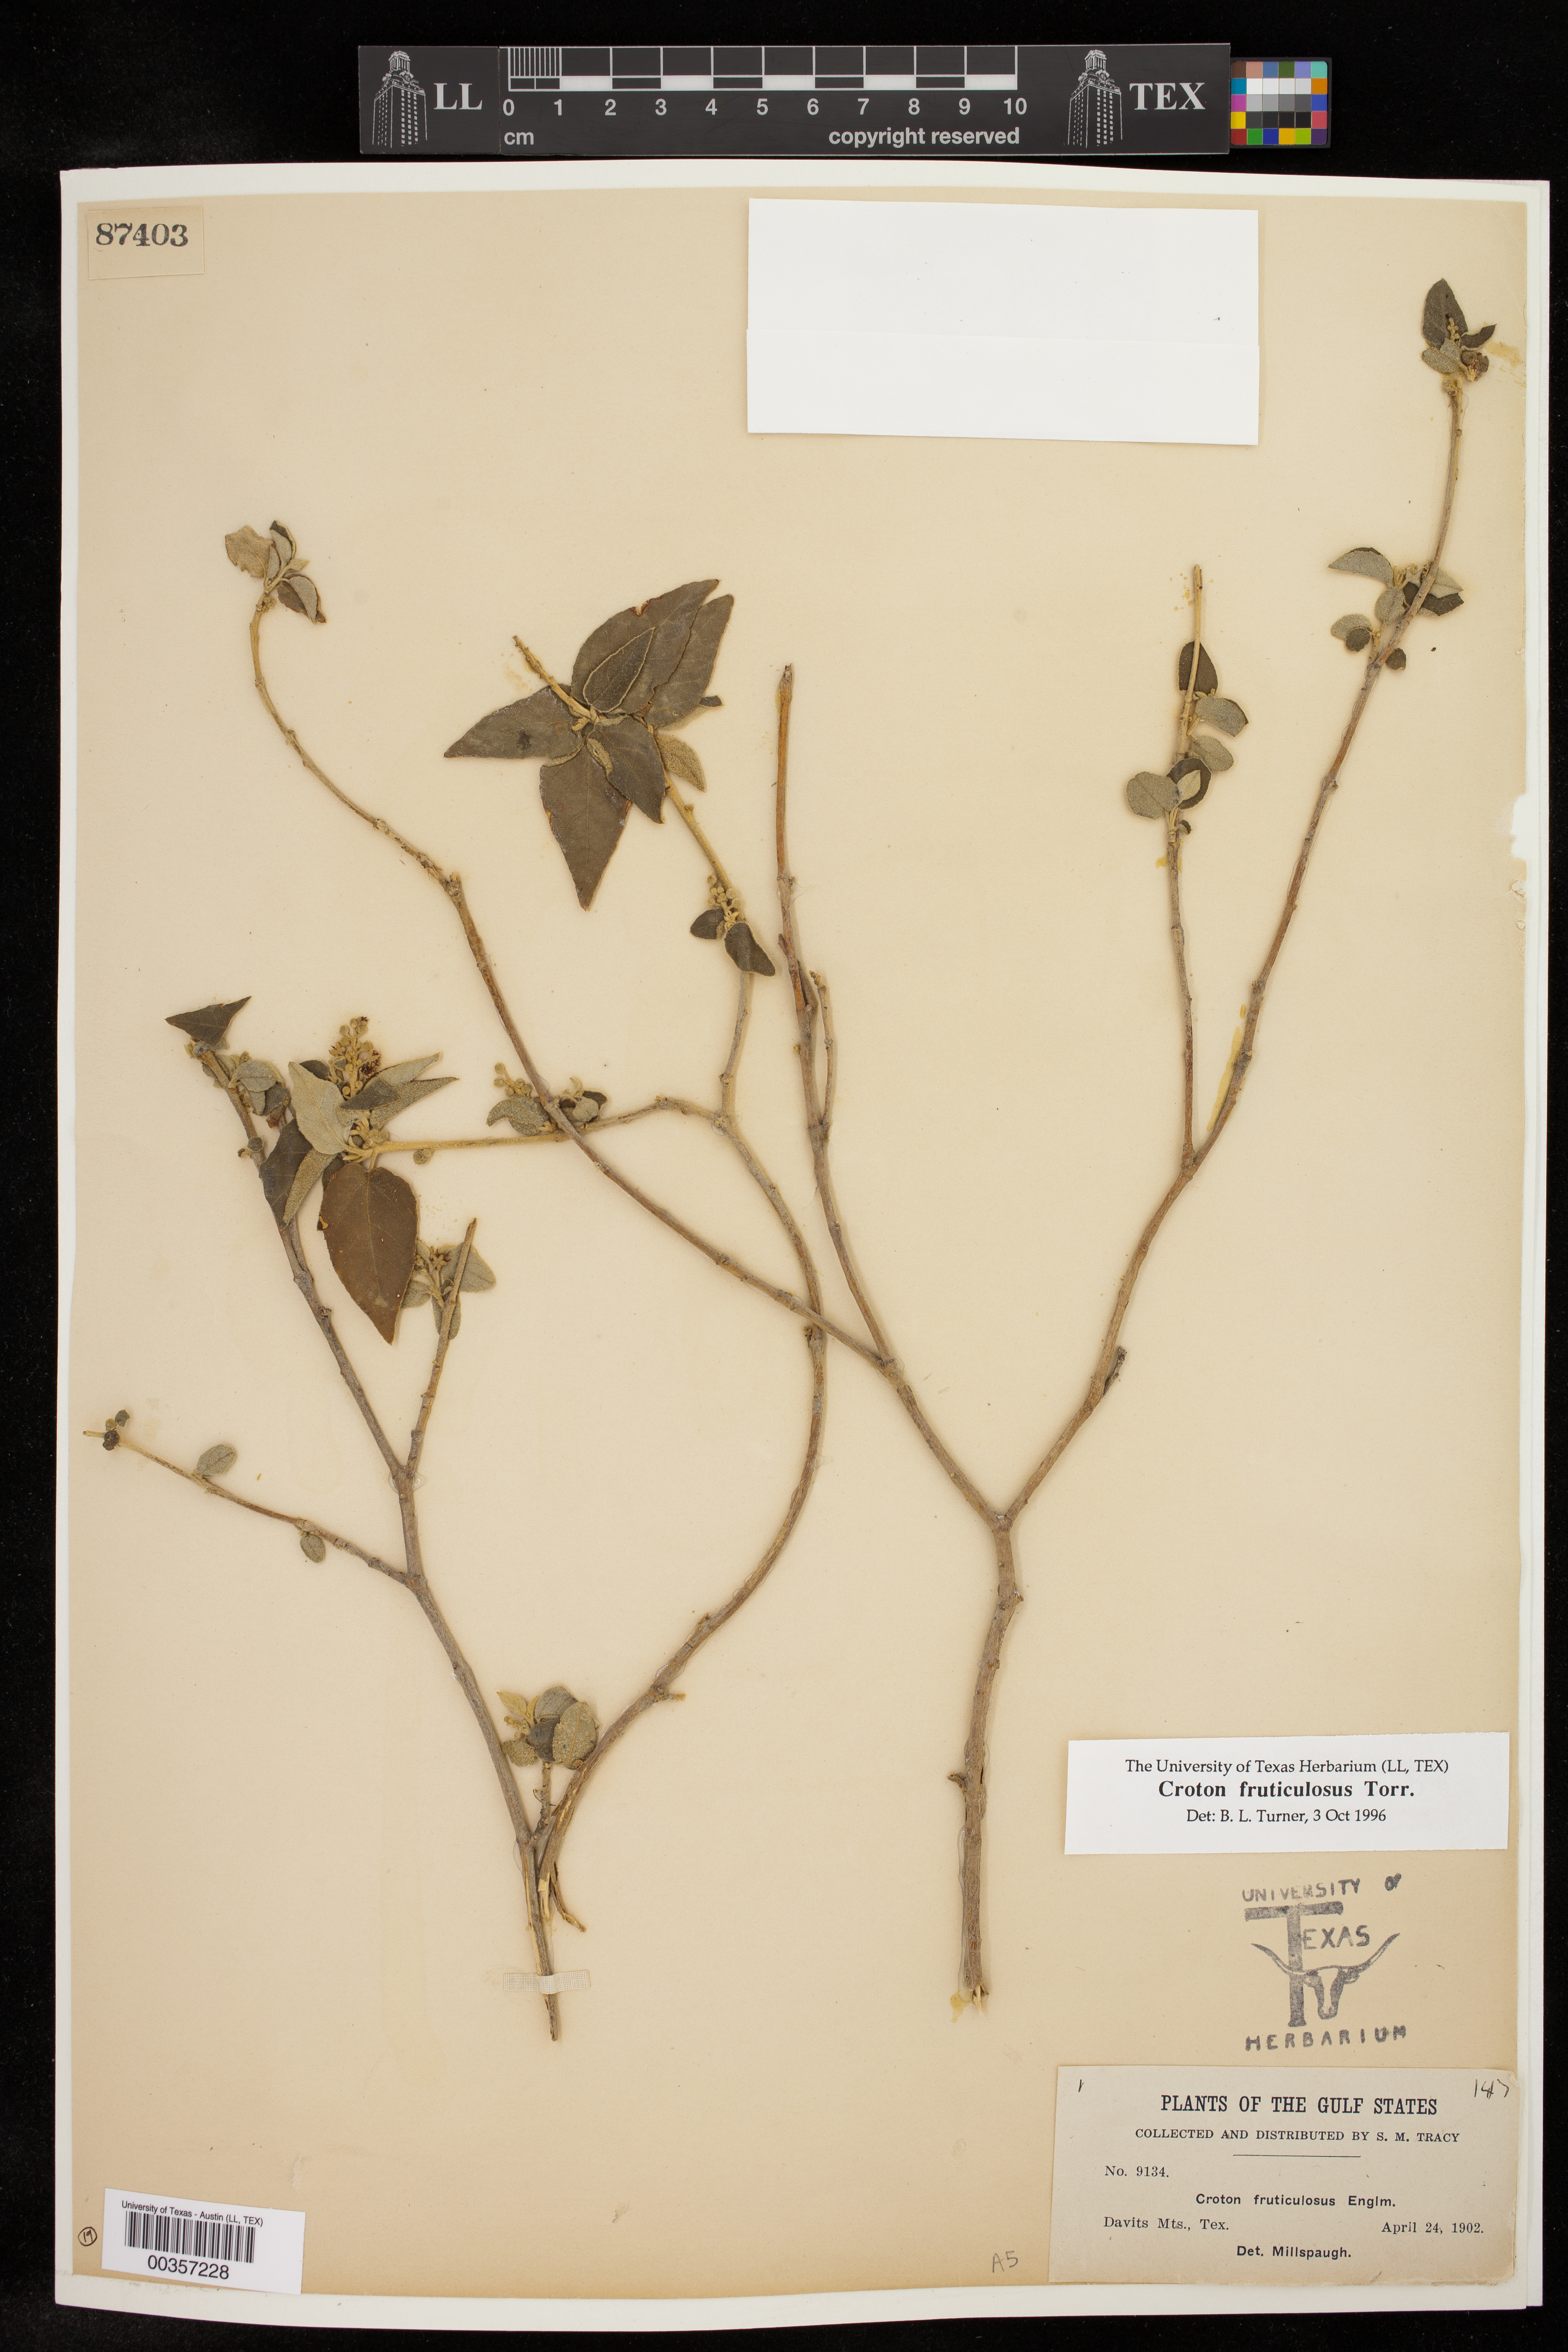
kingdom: Plantae
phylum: Tracheophyta
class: Magnoliopsida
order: Malpighiales
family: Euphorbiaceae
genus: Croton
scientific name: Croton fruticulosus
